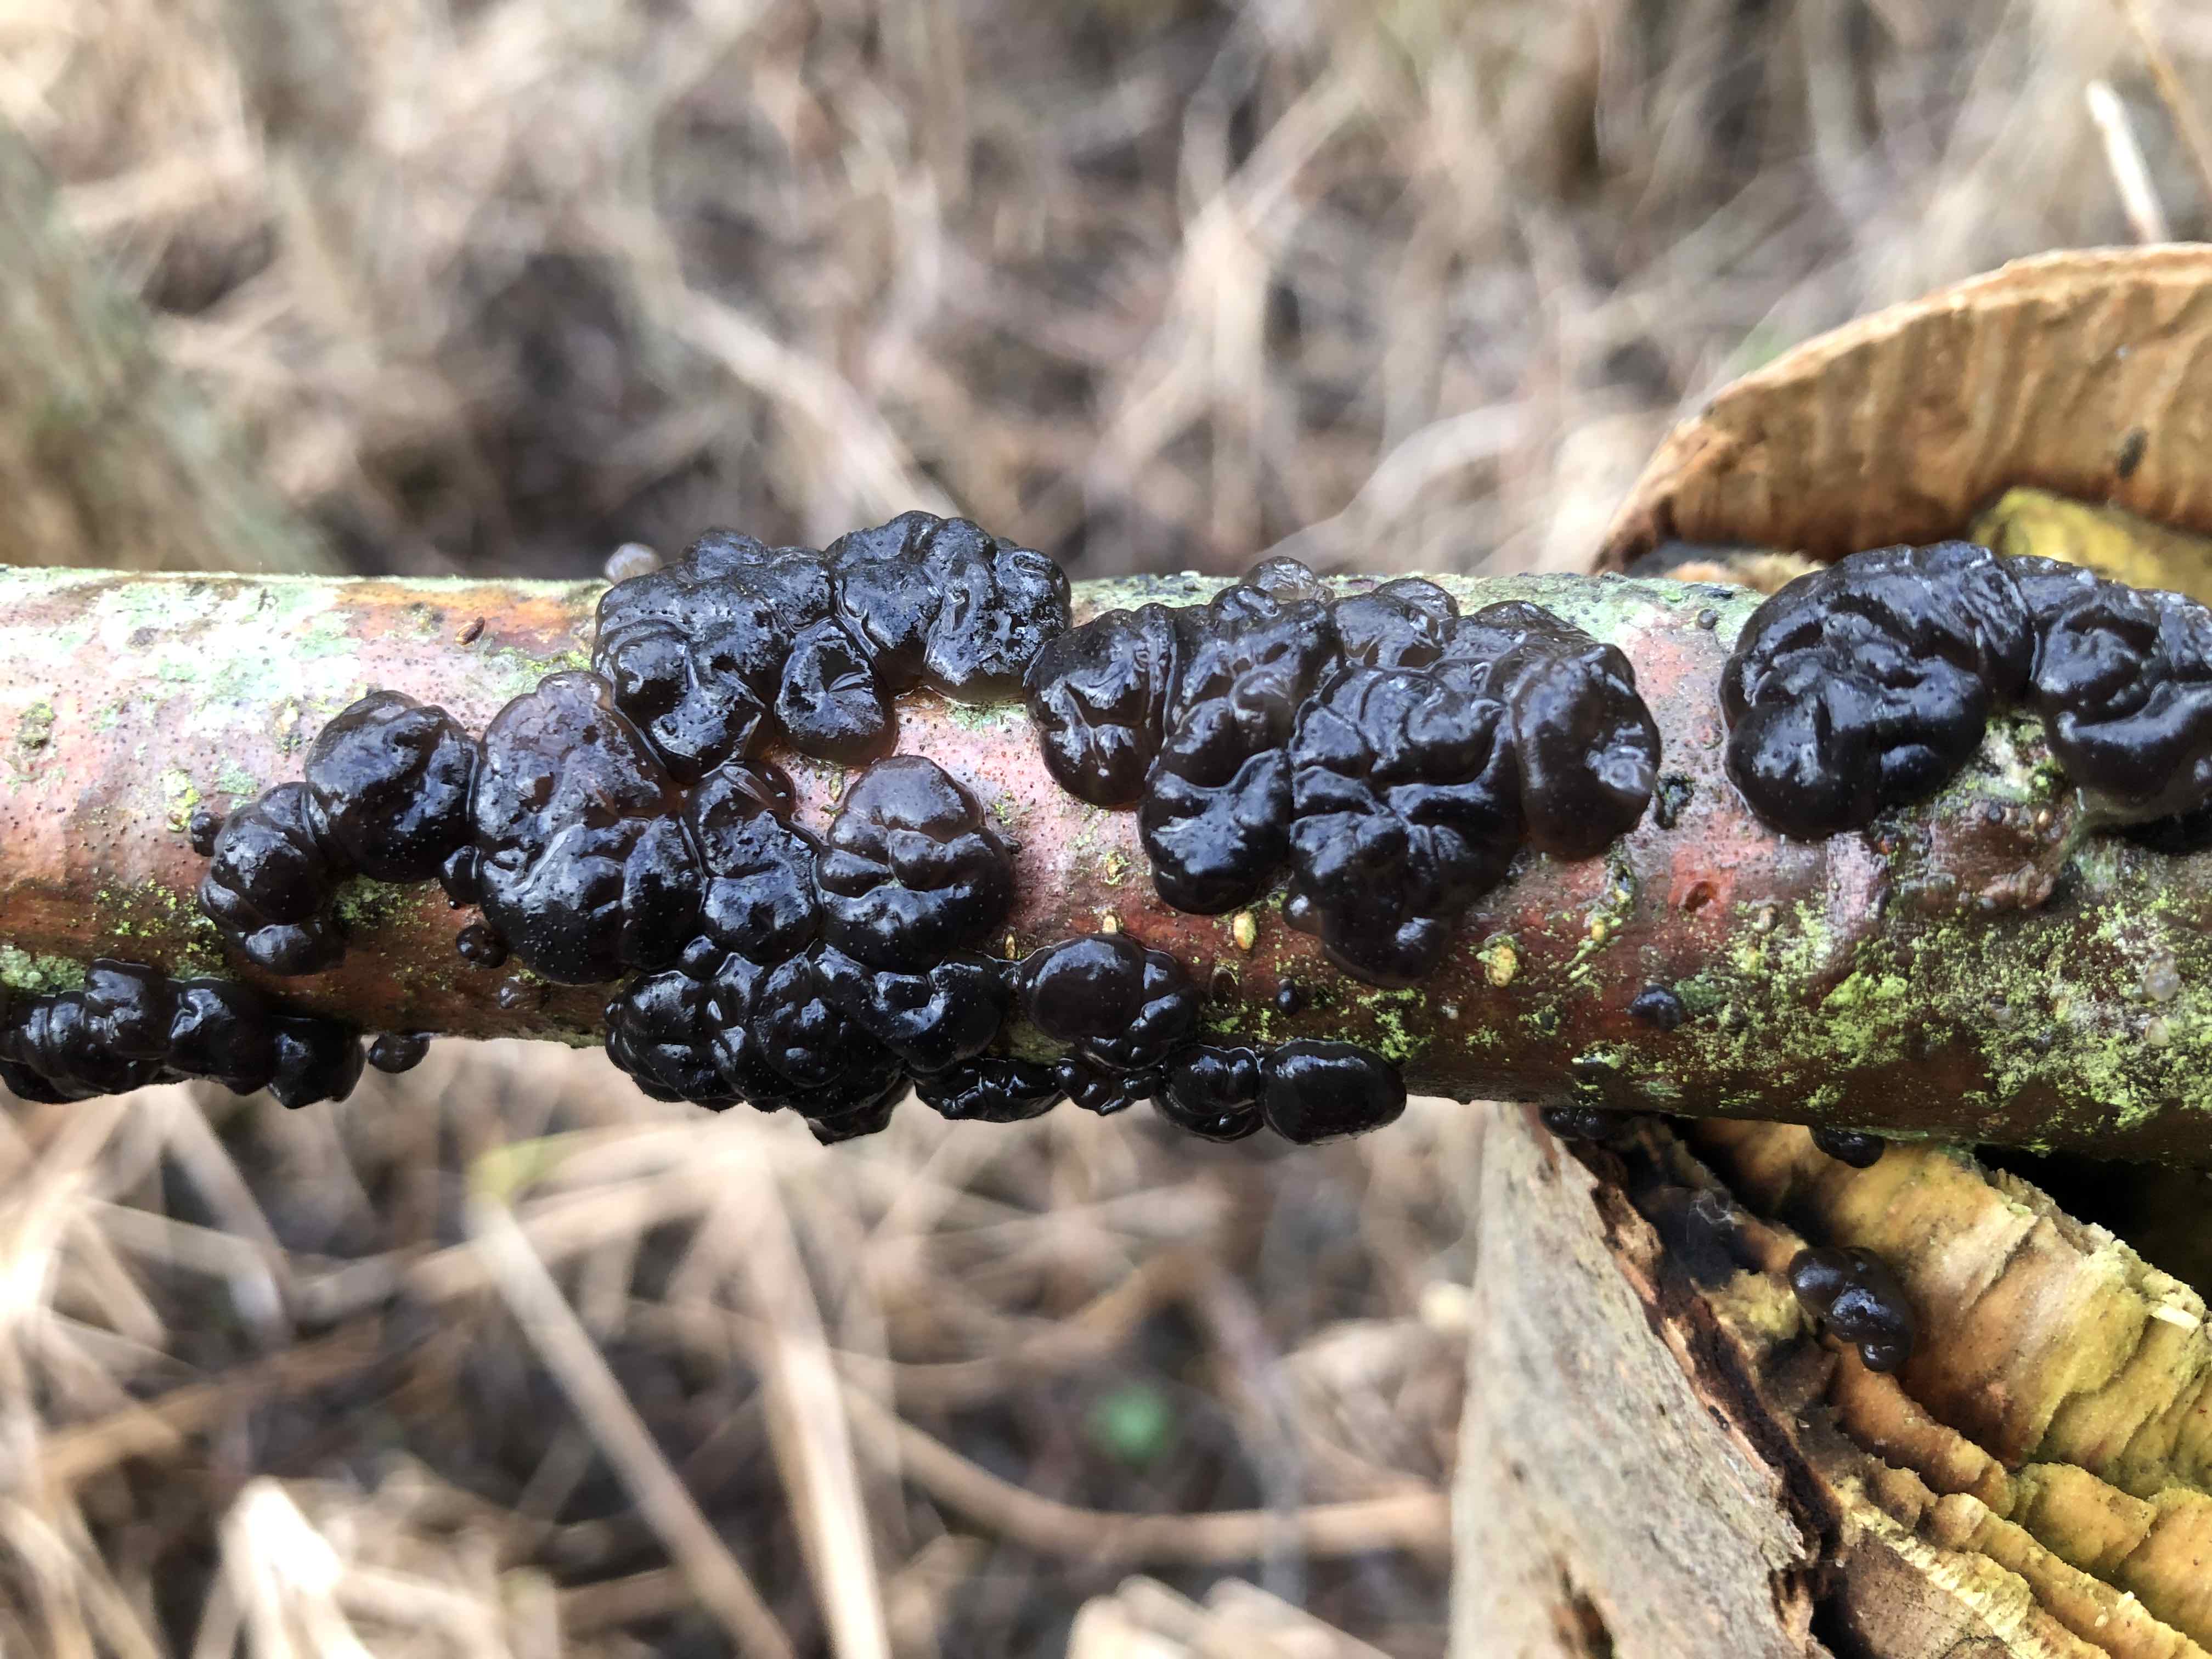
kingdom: Fungi
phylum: Basidiomycota
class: Agaricomycetes
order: Auriculariales
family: Auriculariaceae
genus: Exidia
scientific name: Exidia nigricans
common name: almindelig bævretop
